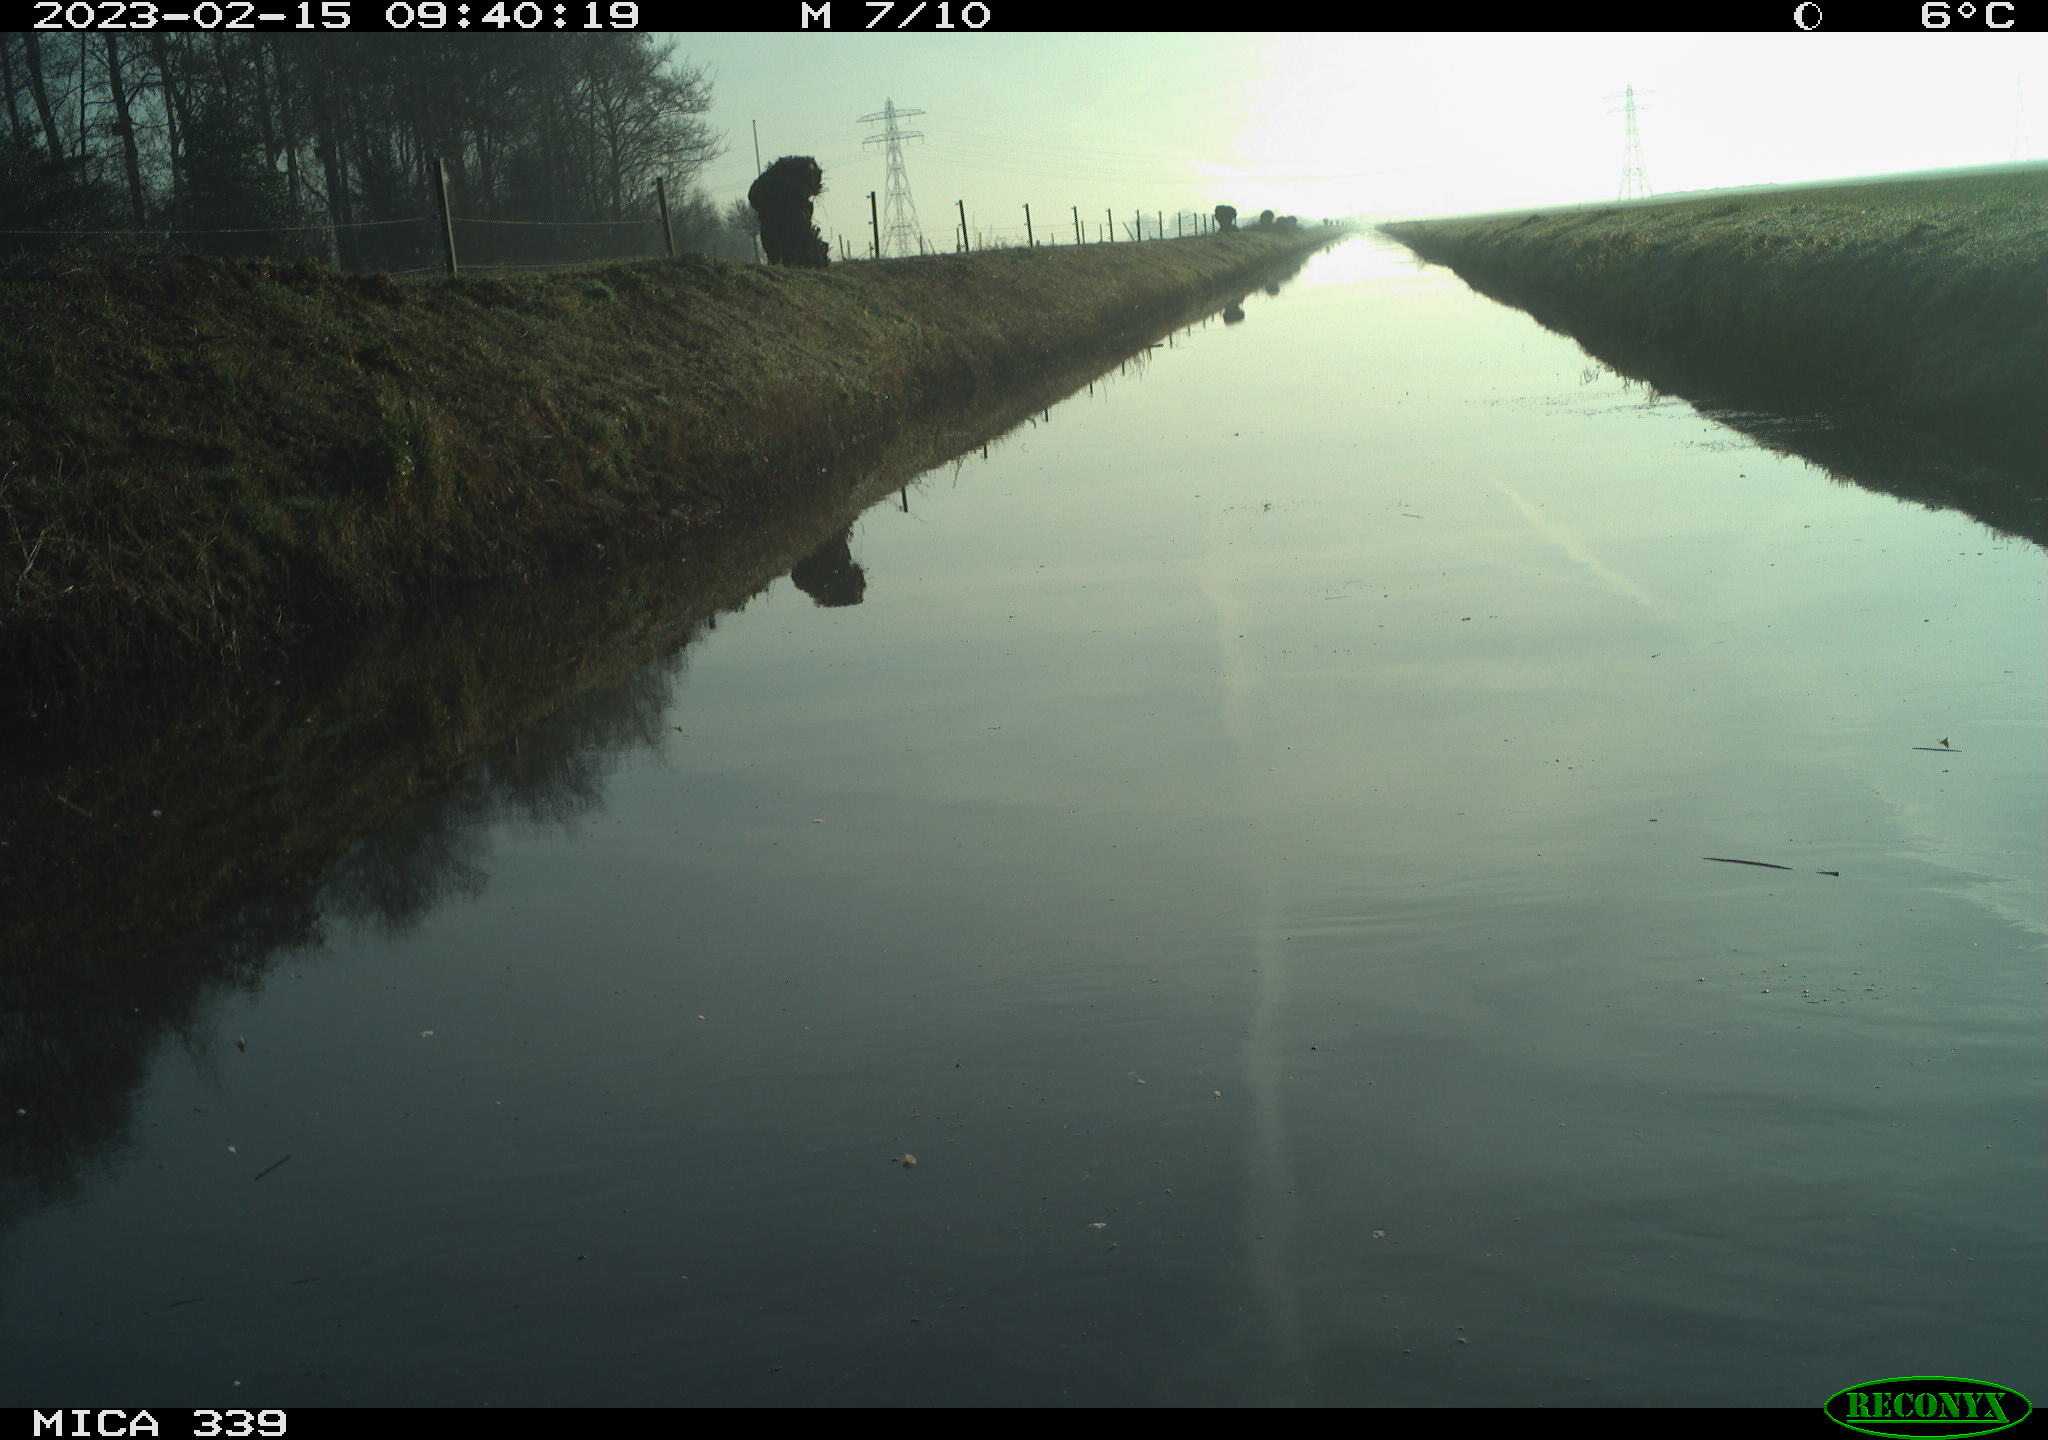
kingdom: Animalia
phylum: Chordata
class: Aves
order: Pelecaniformes
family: Ardeidae
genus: Ardea
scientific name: Ardea cinerea
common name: Grey heron
